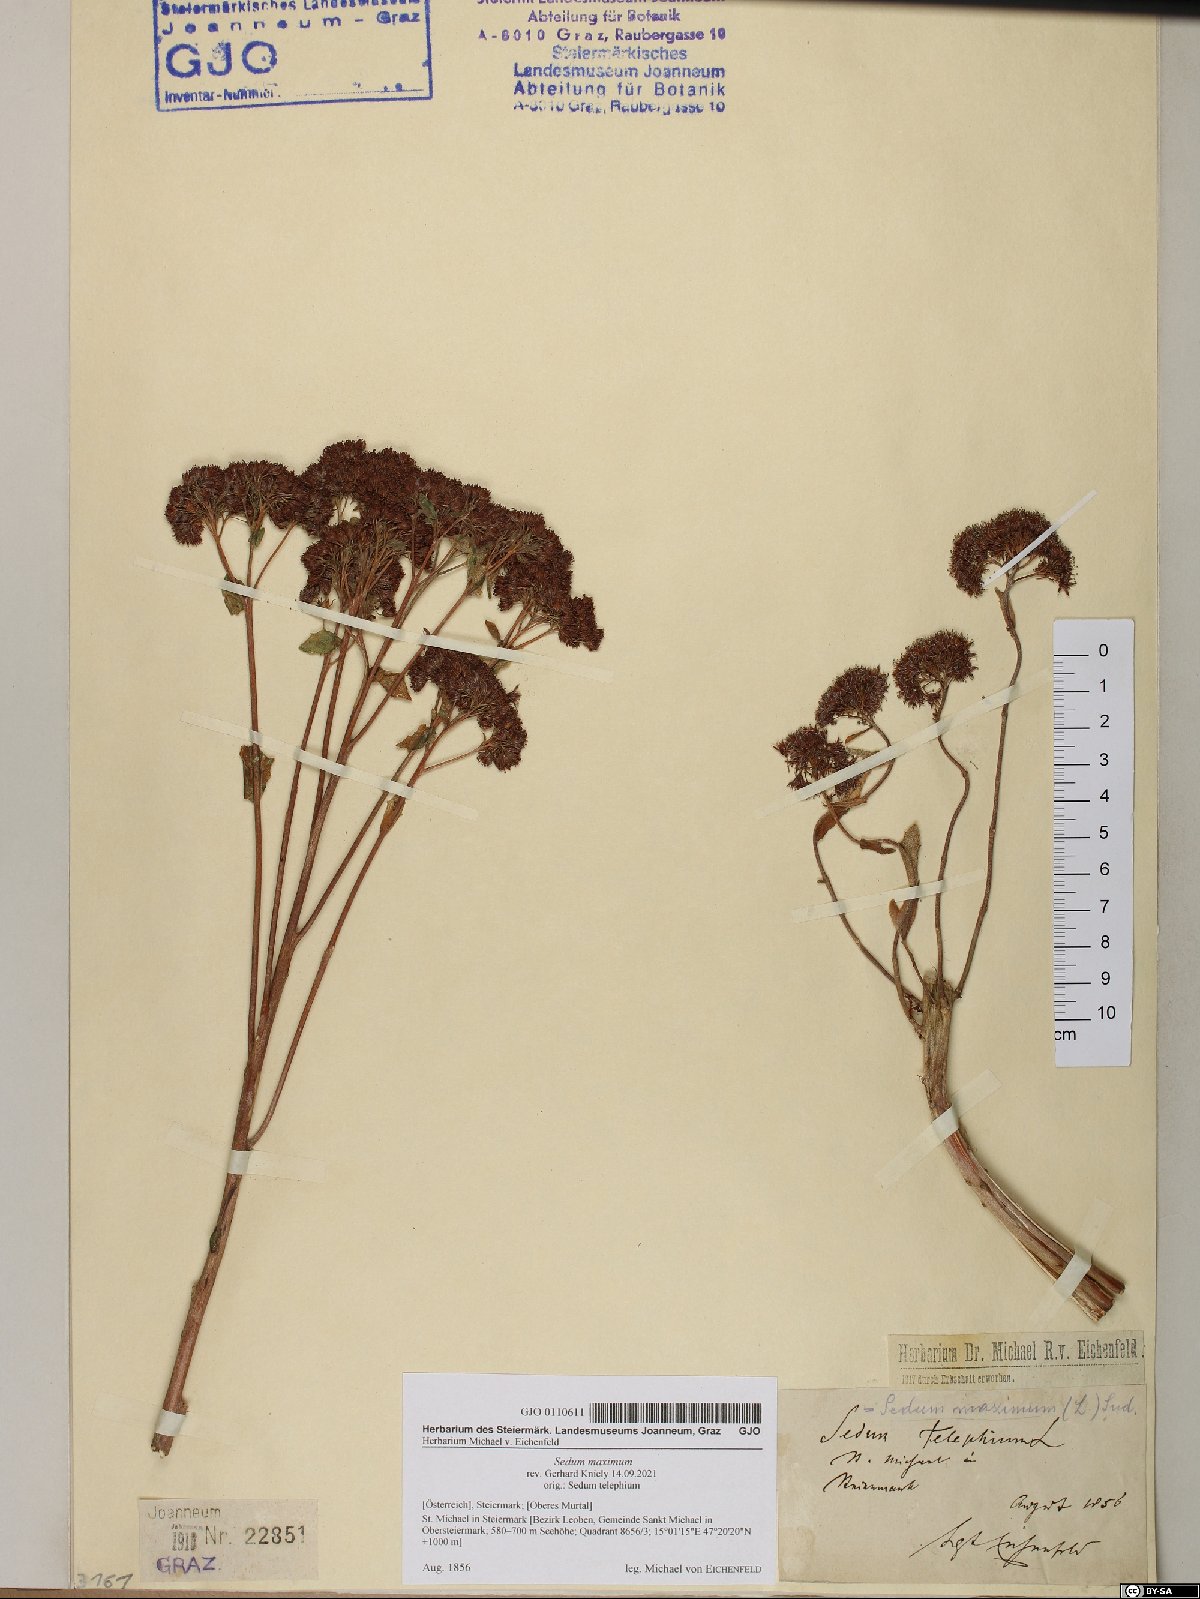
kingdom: Plantae
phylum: Tracheophyta
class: Magnoliopsida
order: Saxifragales
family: Crassulaceae
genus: Hylotelephium
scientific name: Hylotelephium maximum
